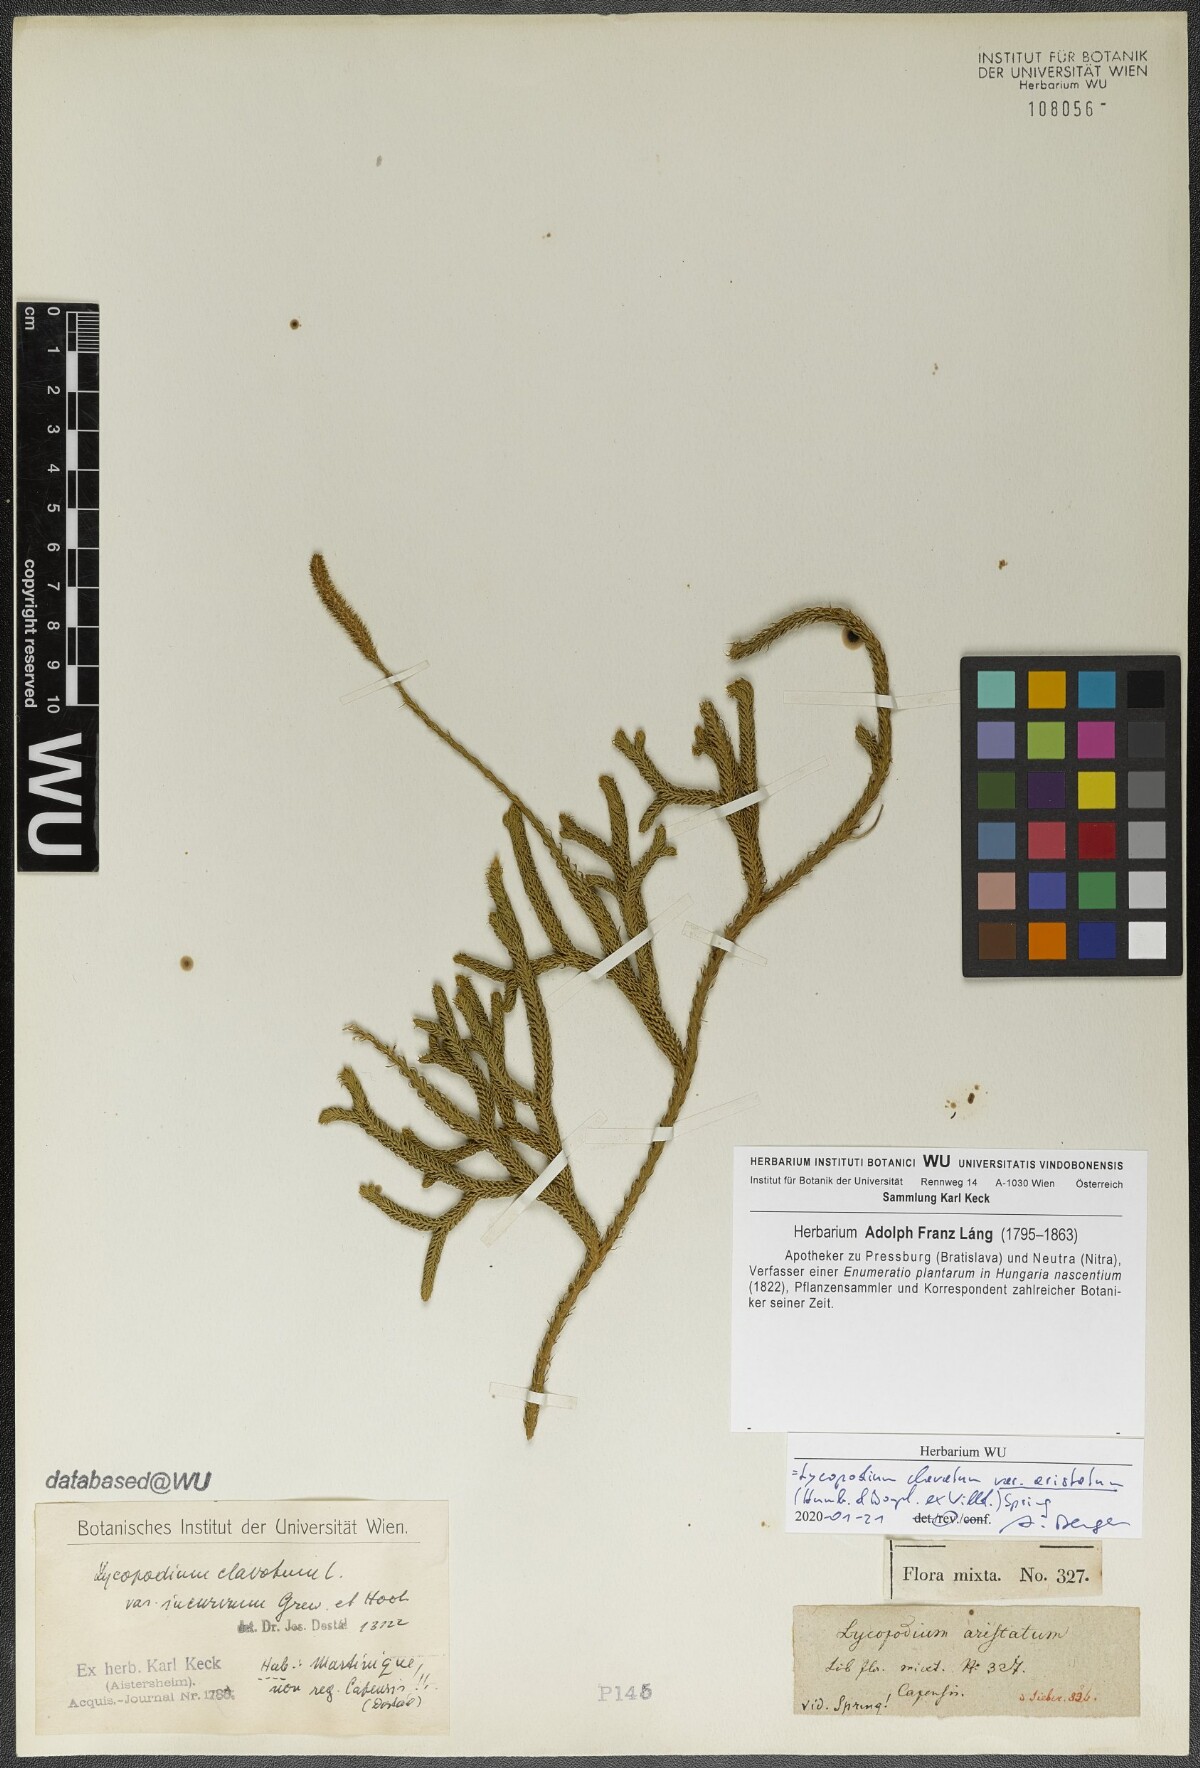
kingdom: Plantae
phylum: Tracheophyta
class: Lycopodiopsida
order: Lycopodiales
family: Lycopodiaceae
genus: Lycopodium
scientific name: Lycopodium clavatum
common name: Stag's-horn clubmoss
